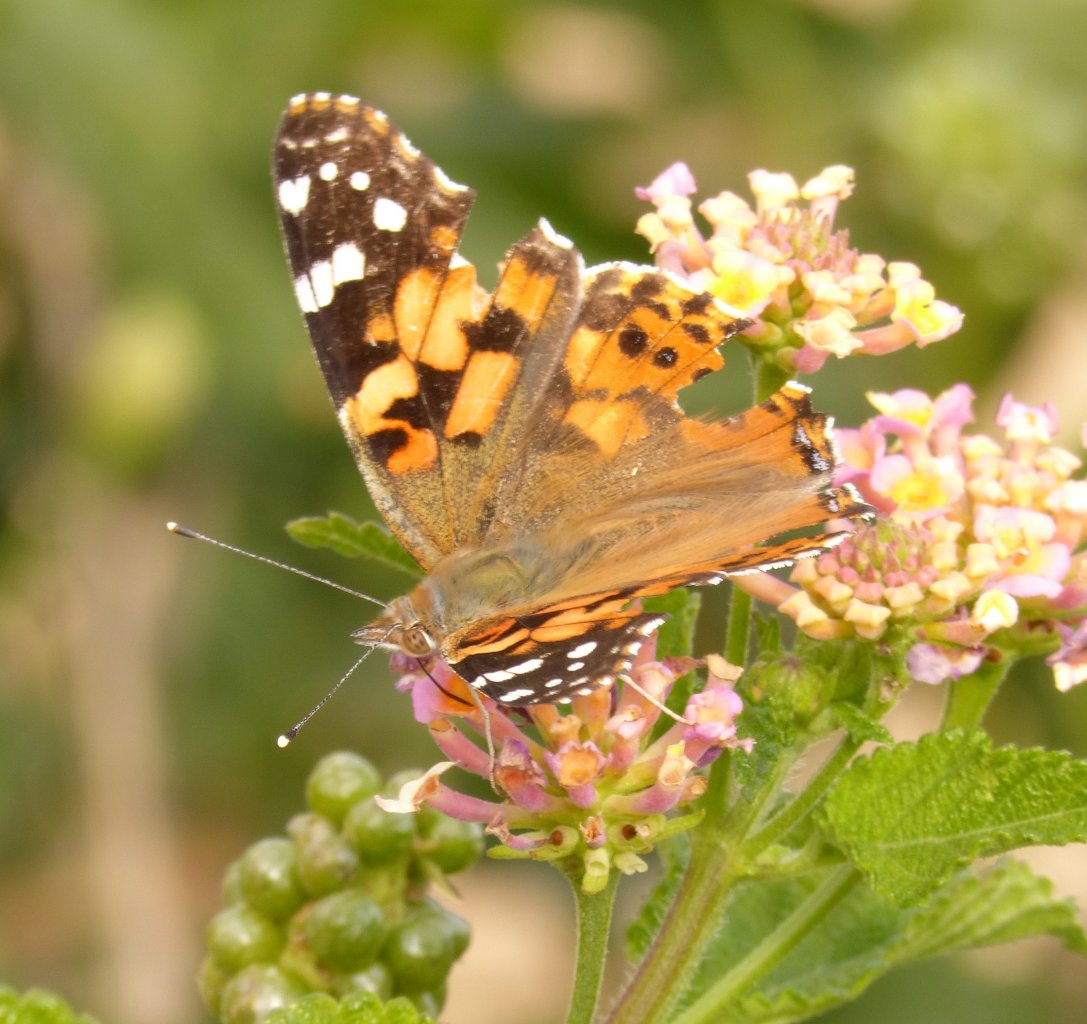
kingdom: Animalia
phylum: Arthropoda
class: Insecta
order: Lepidoptera
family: Nymphalidae
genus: Vanessa
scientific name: Vanessa cardui
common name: Painted Lady
